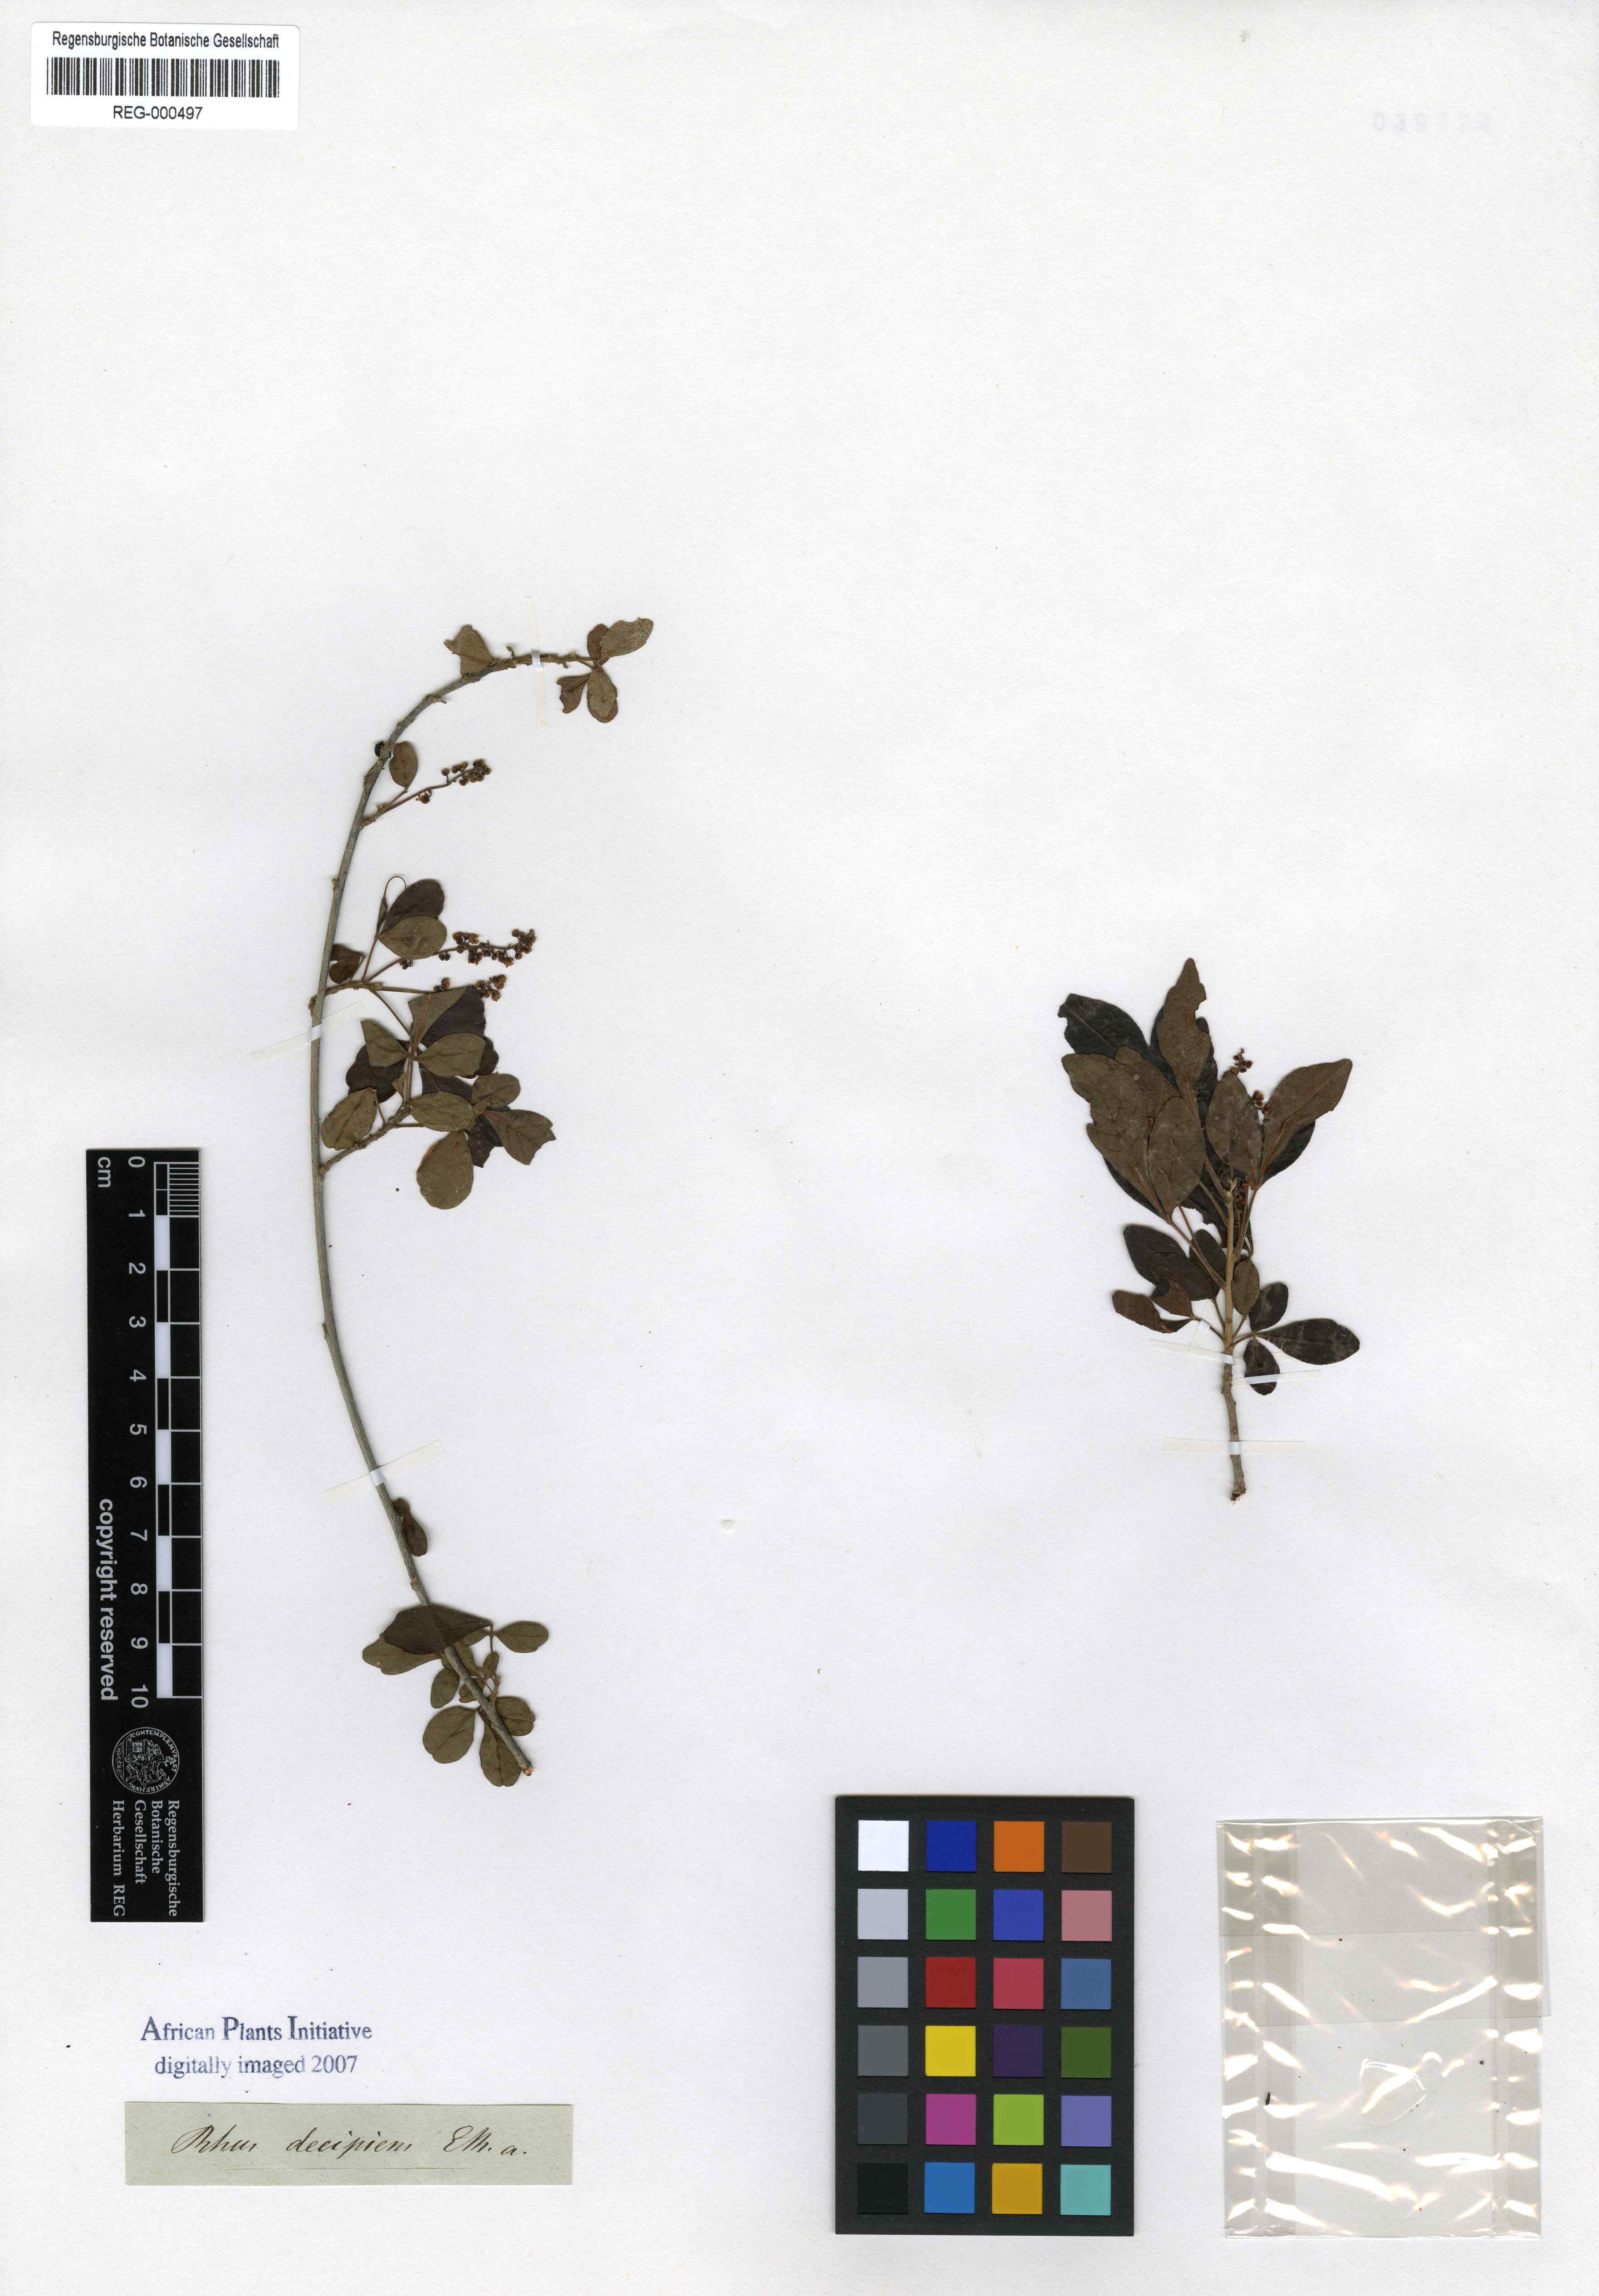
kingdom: Plantae
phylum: Tracheophyta
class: Magnoliopsida
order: Sapindales
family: Sapindaceae
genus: Allophylus
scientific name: Allophylus decipiens
